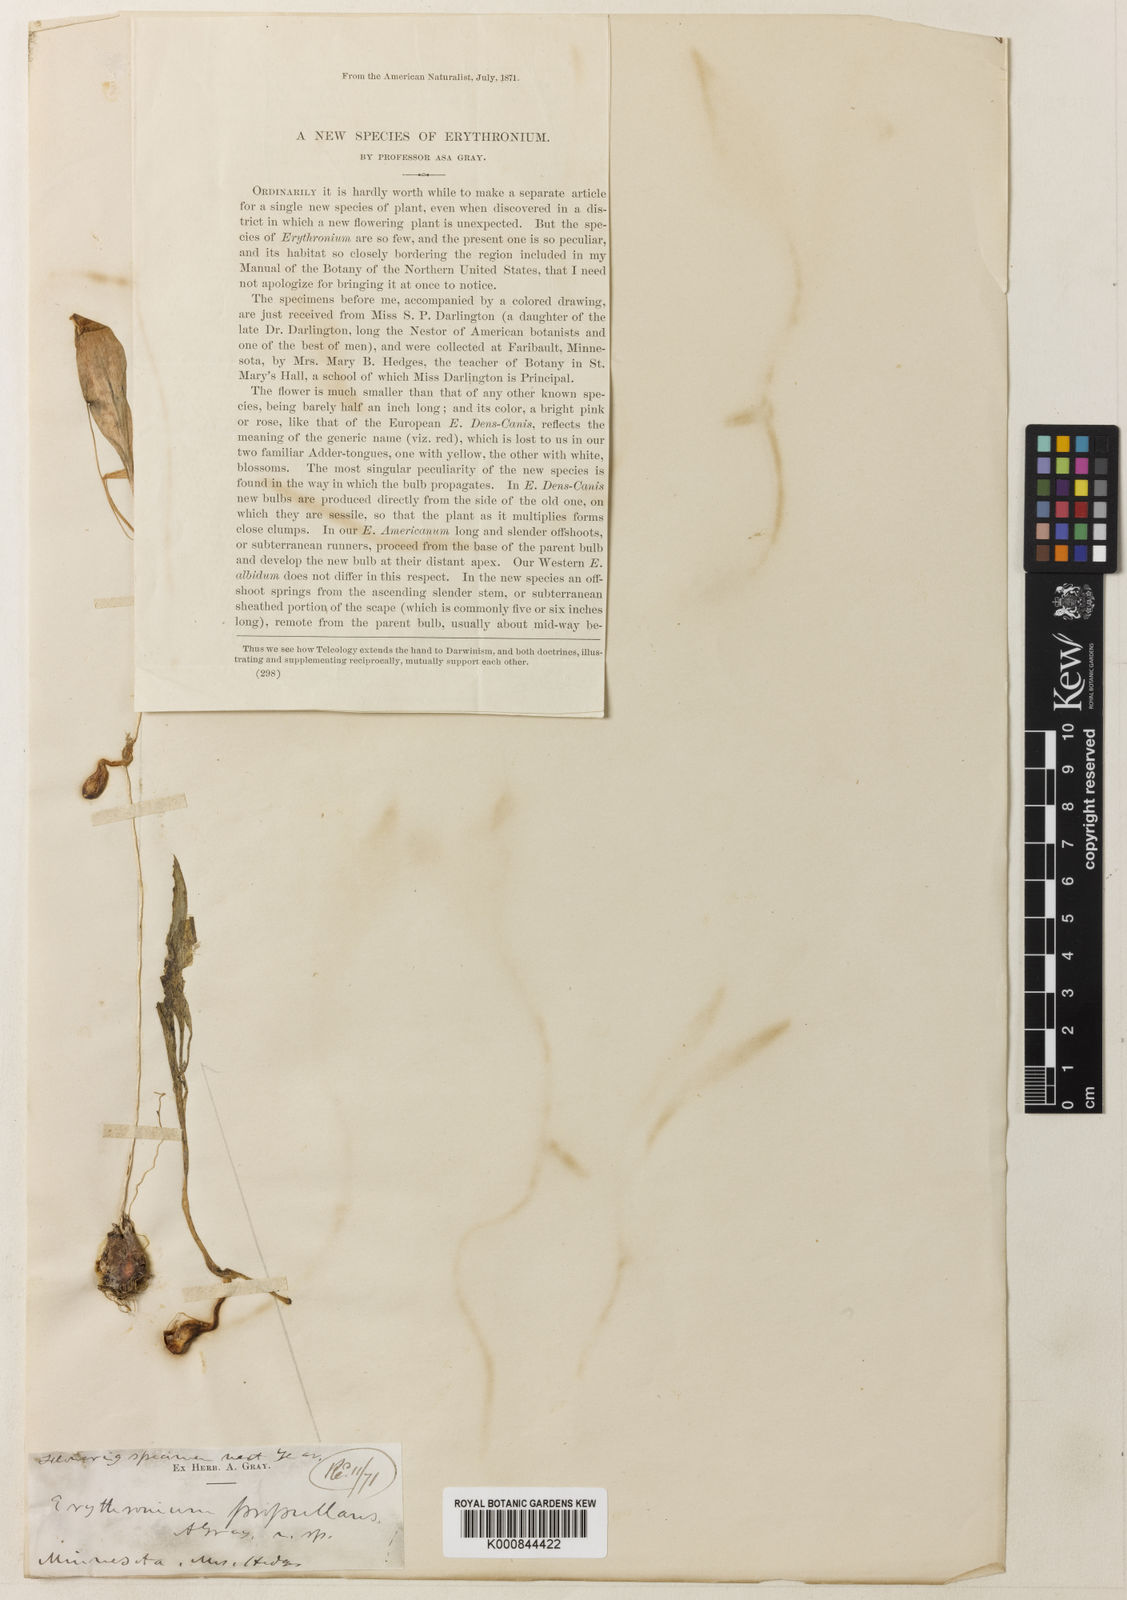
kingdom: Plantae
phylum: Tracheophyta
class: Liliopsida
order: Liliales
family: Liliaceae
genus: Erythronium
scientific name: Erythronium propullans
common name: Minnesota dwarf trout-lily
